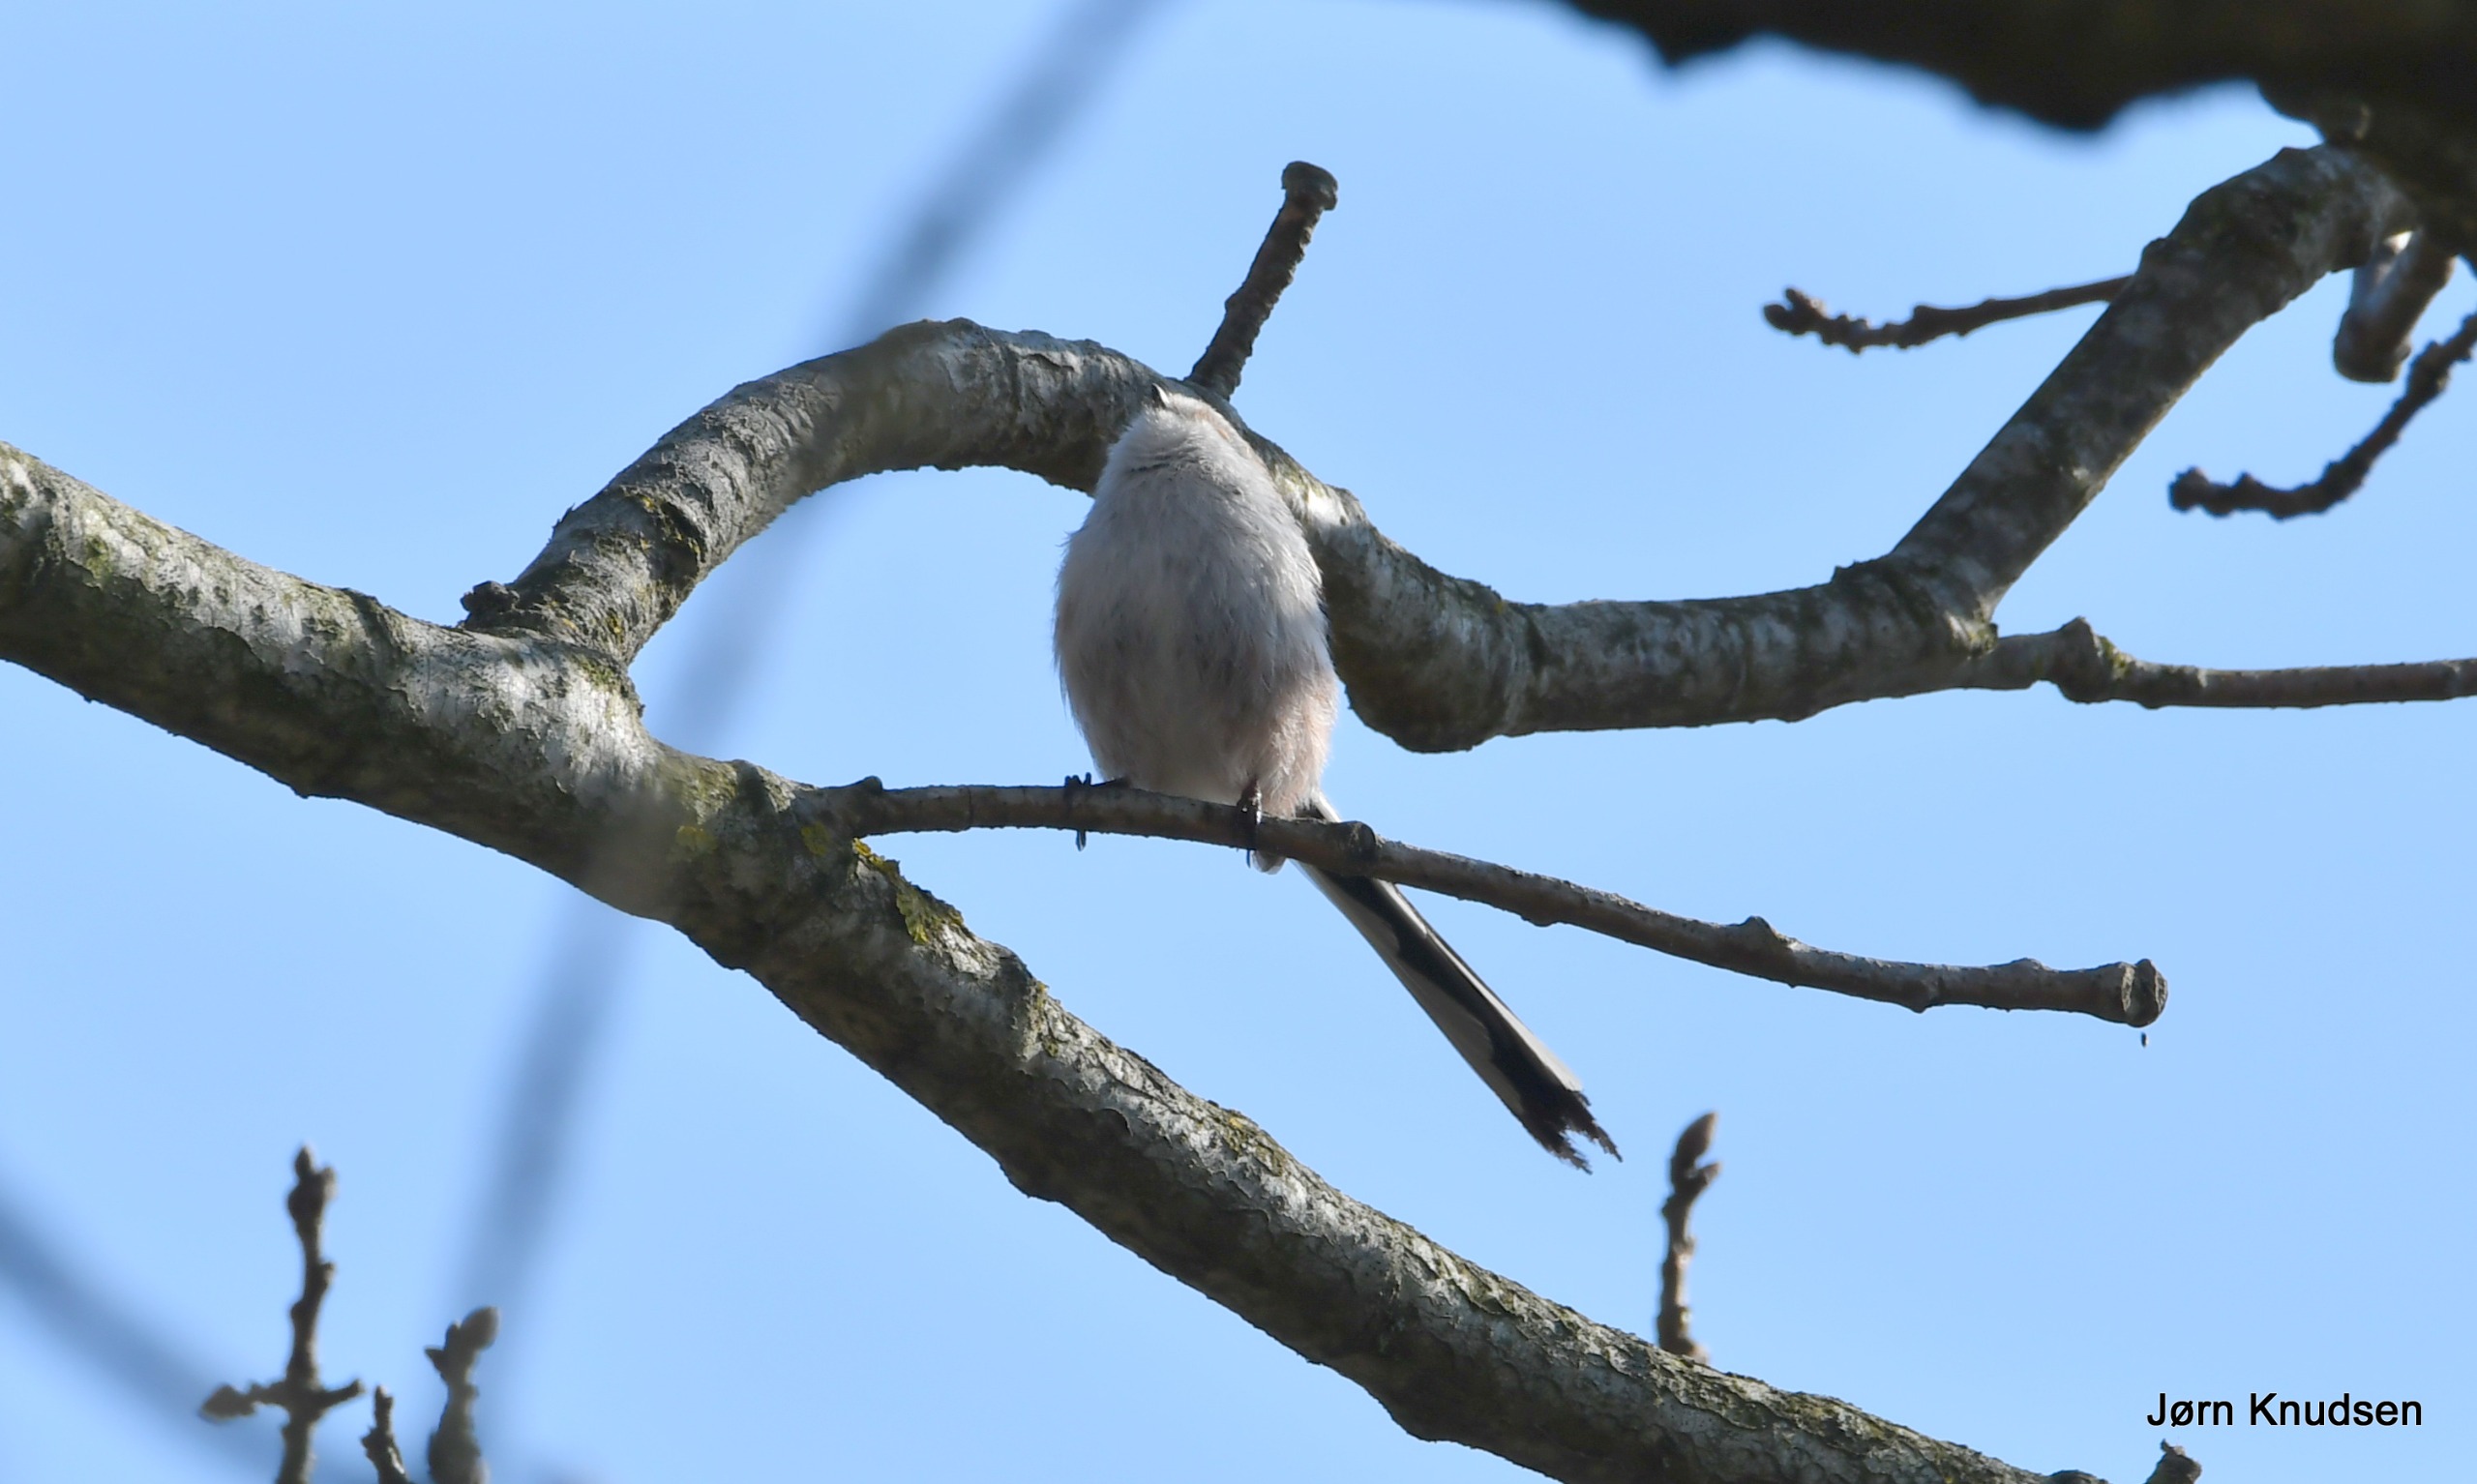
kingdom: Animalia
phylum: Chordata
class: Aves
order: Passeriformes
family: Aegithalidae
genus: Aegithalos
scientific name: Aegithalos caudatus
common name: Halemejse
